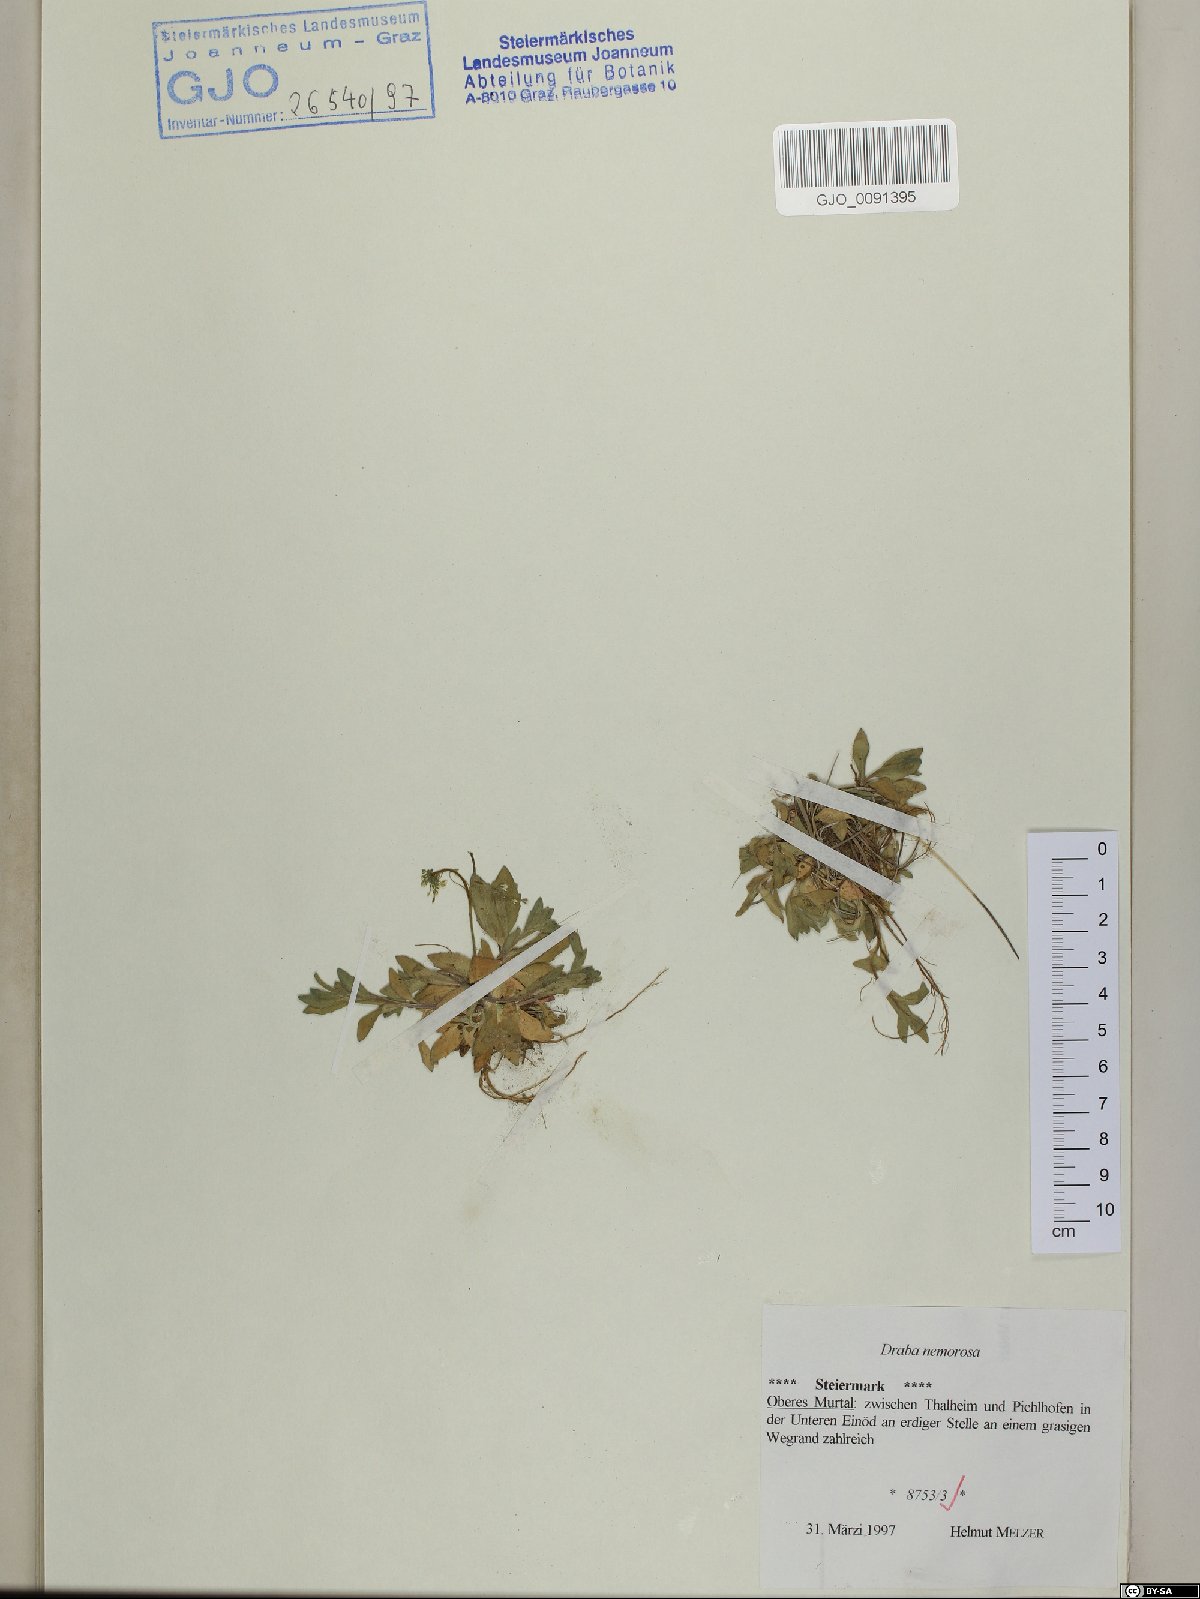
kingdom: Plantae
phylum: Tracheophyta
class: Magnoliopsida
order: Brassicales
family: Brassicaceae
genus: Draba
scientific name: Draba nemorosa
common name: Wood whitlow-grass
